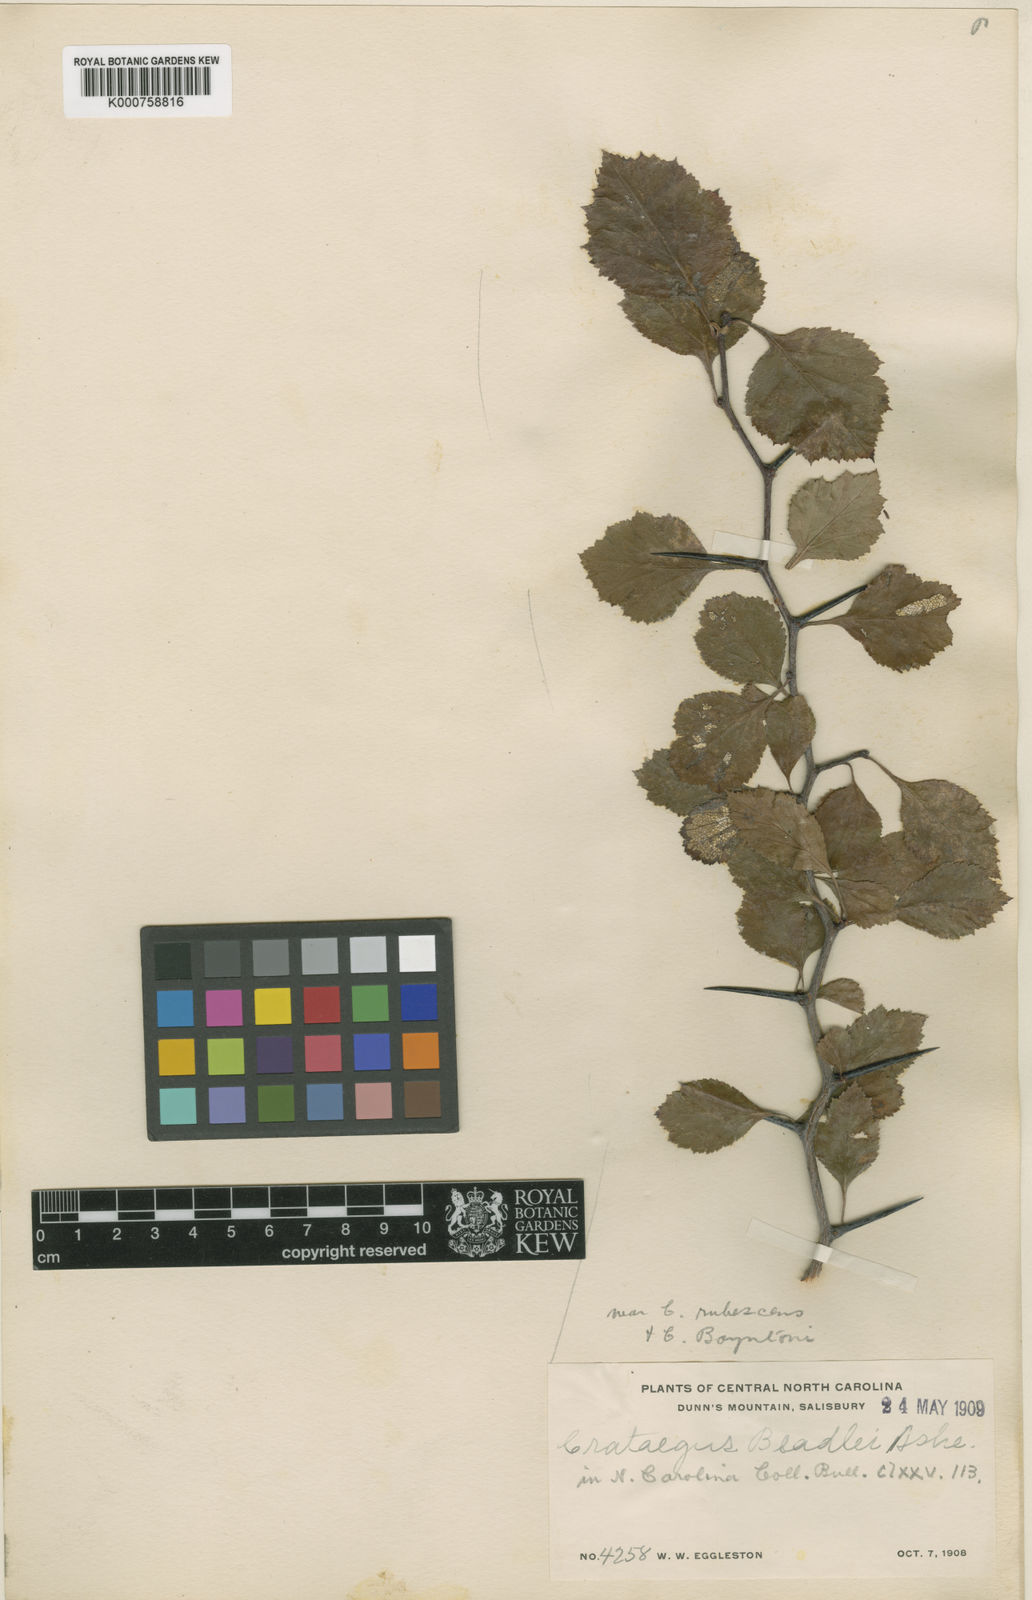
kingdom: Plantae
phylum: Tracheophyta
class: Magnoliopsida
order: Rosales
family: Rosaceae
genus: Crataegus
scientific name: Crataegus beadlei
